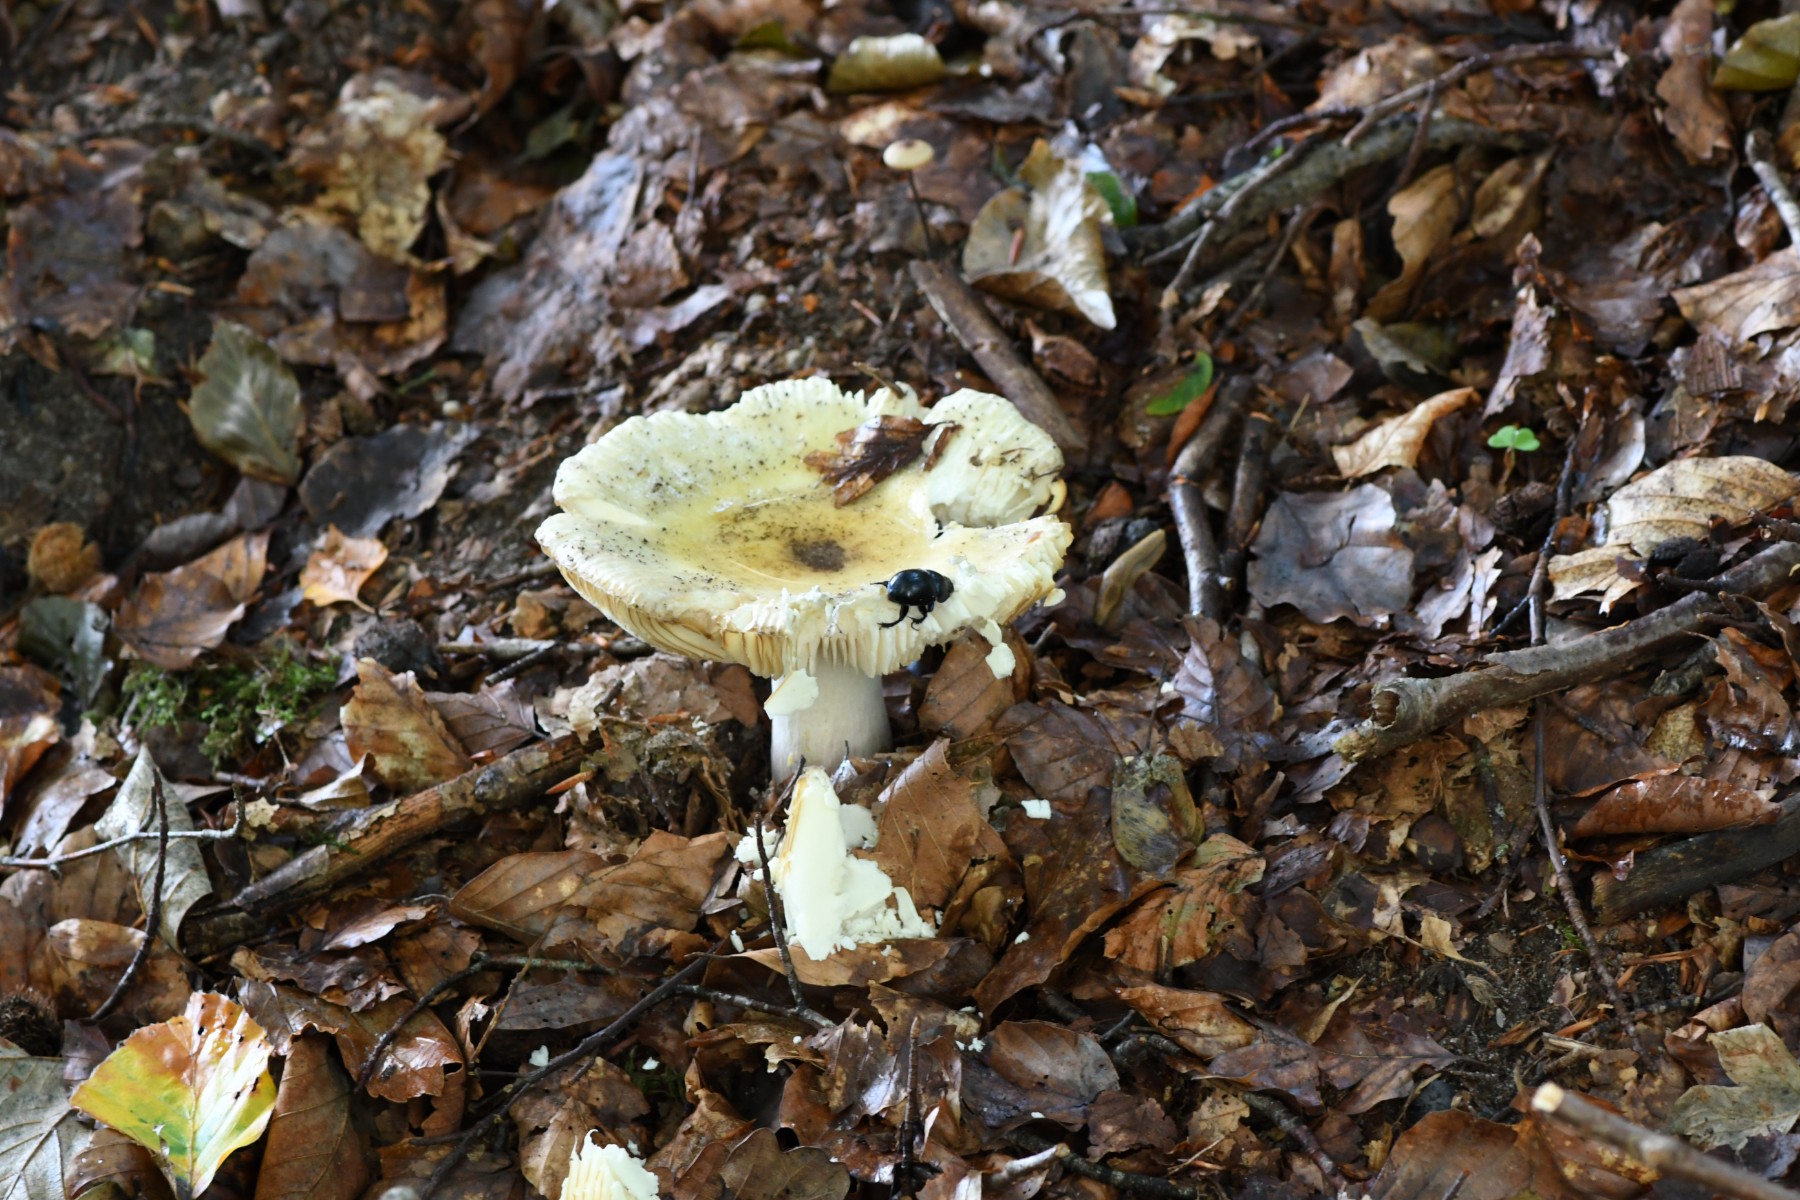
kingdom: Fungi
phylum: Basidiomycota
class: Agaricomycetes
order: Russulales
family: Russulaceae
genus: Russula
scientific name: Russula violeipes
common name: ferskengul skørhat
